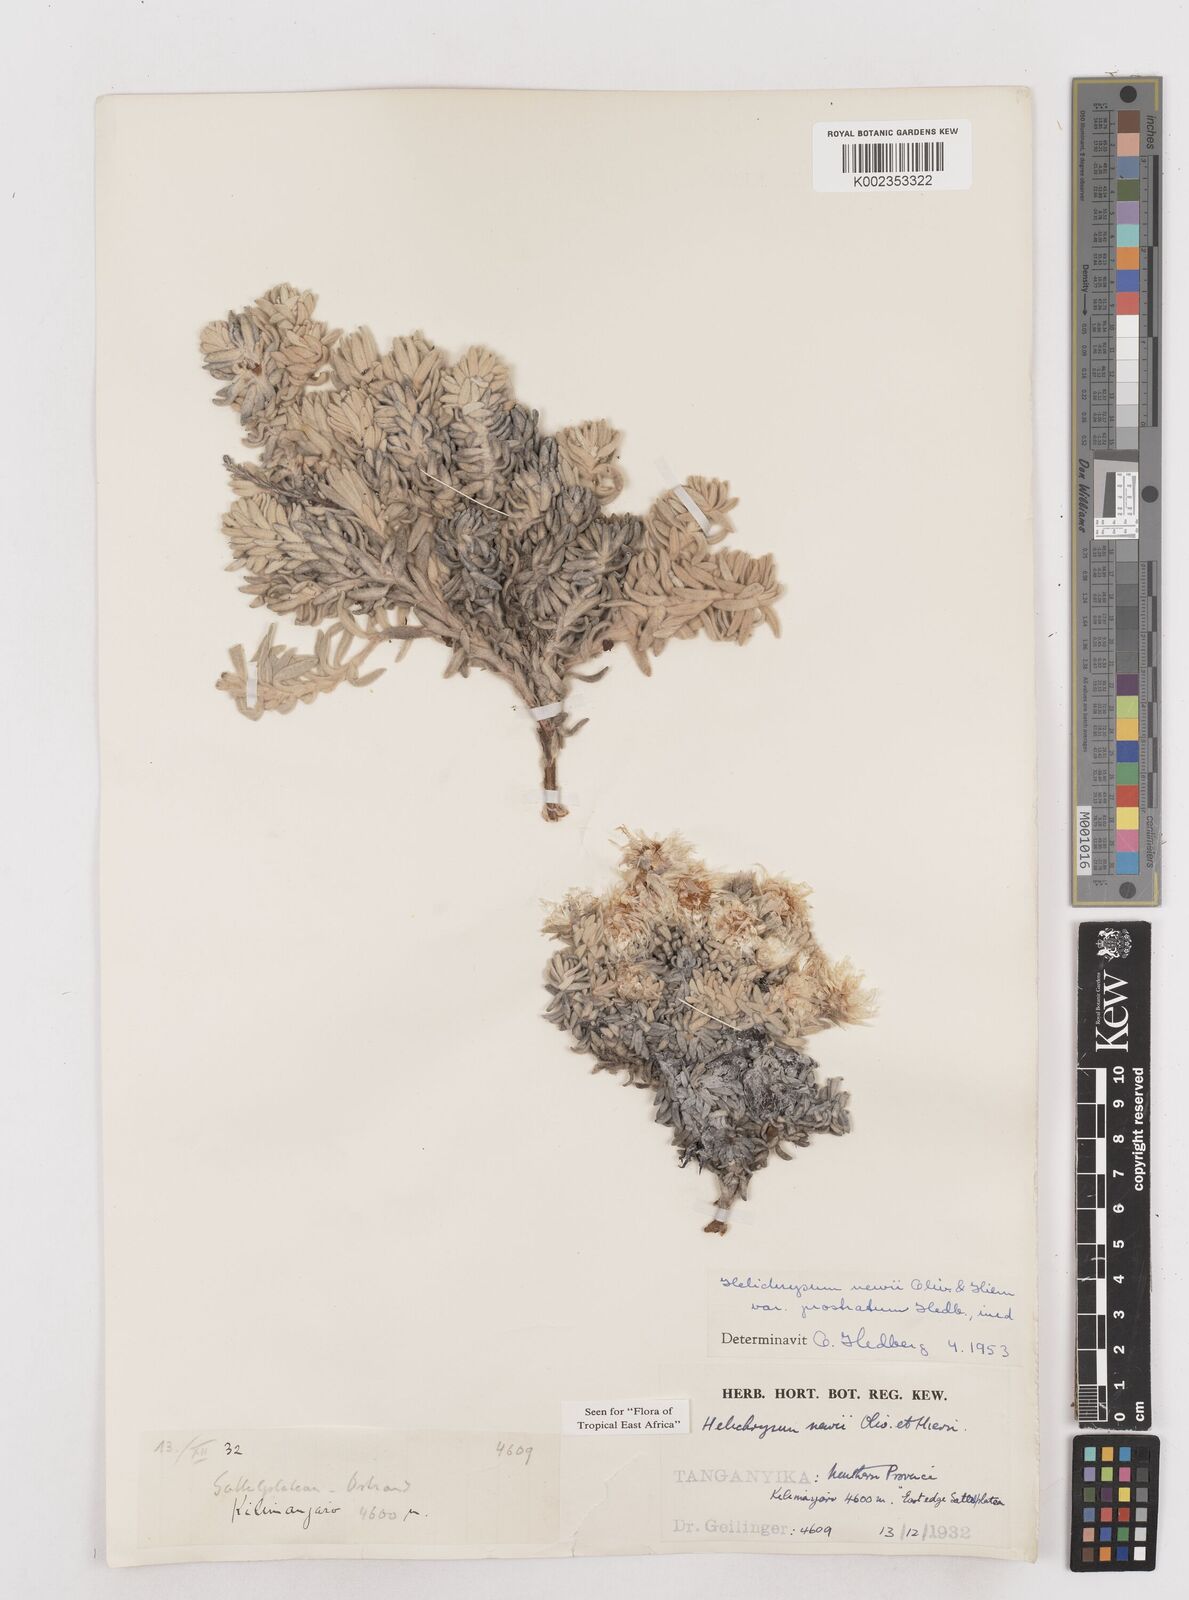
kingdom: Plantae
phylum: Tracheophyta
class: Magnoliopsida
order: Asterales
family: Asteraceae
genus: Helichrysum
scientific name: Helichrysum newii
